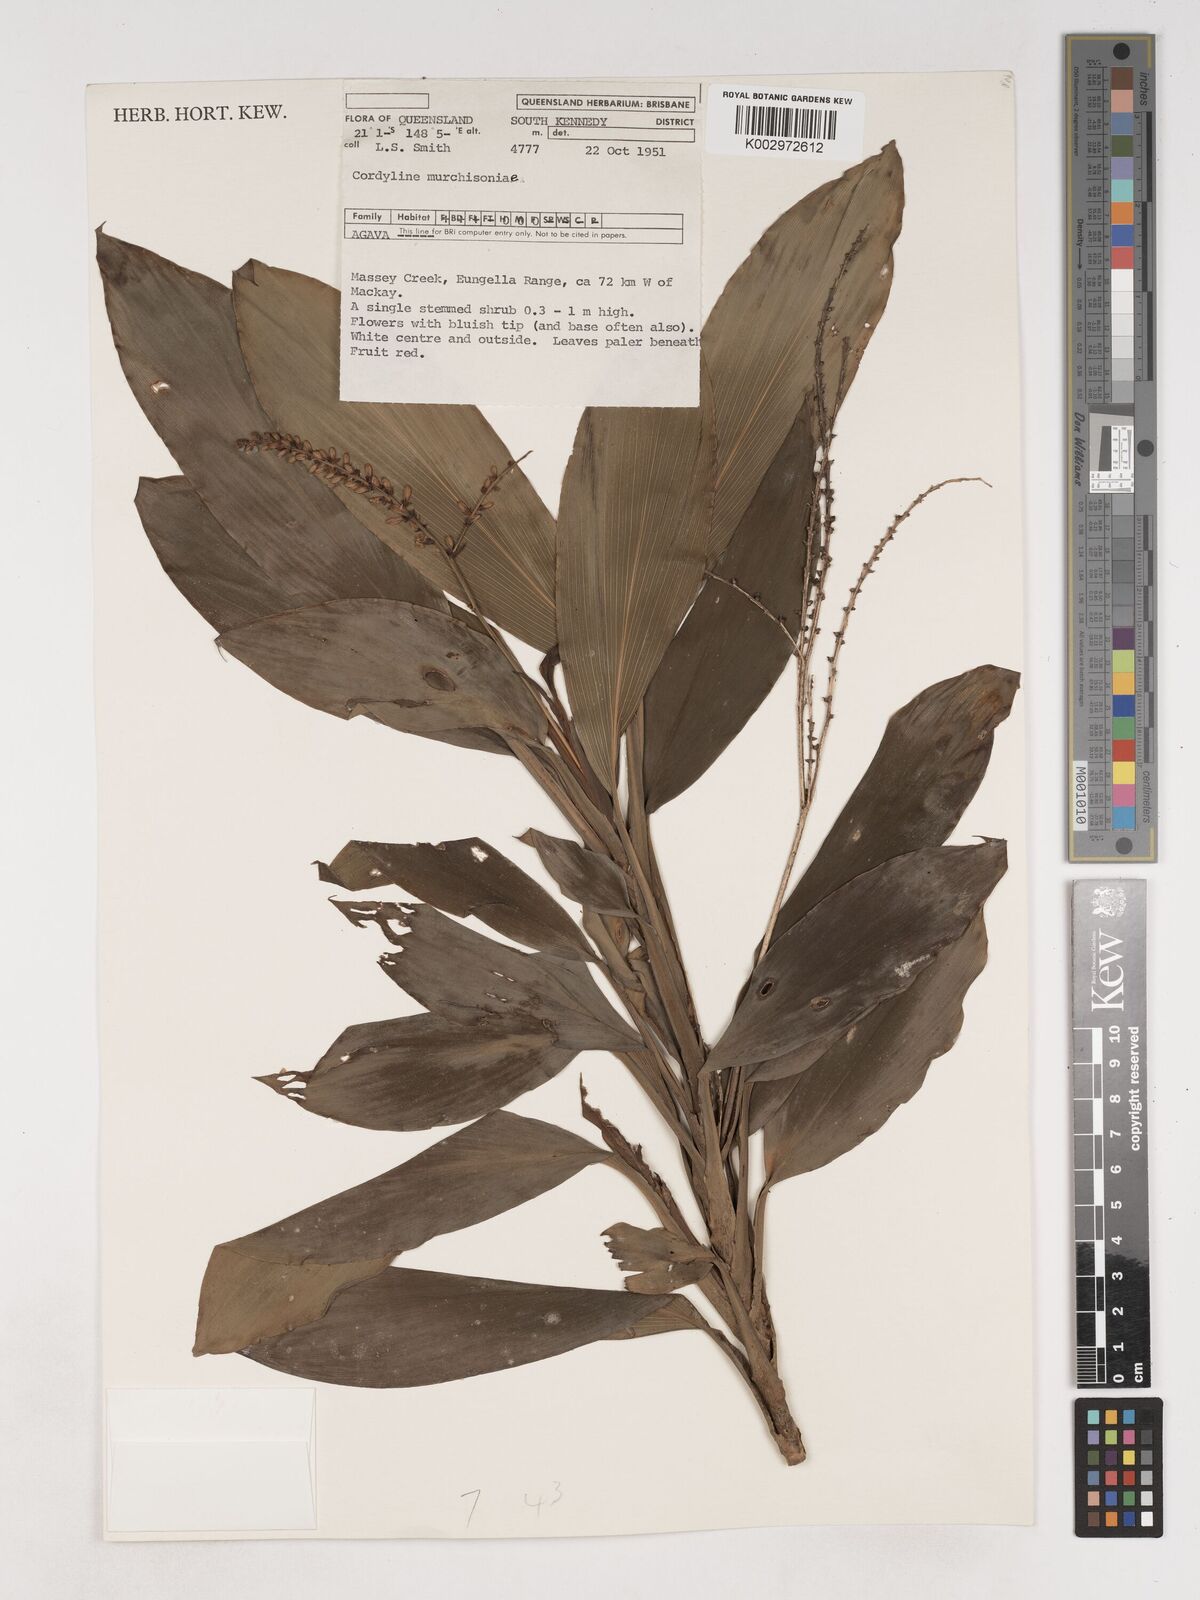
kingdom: Plantae
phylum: Tracheophyta
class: Liliopsida
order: Asparagales
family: Asparagaceae
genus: Cordyline
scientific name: Cordyline murchisoniae
